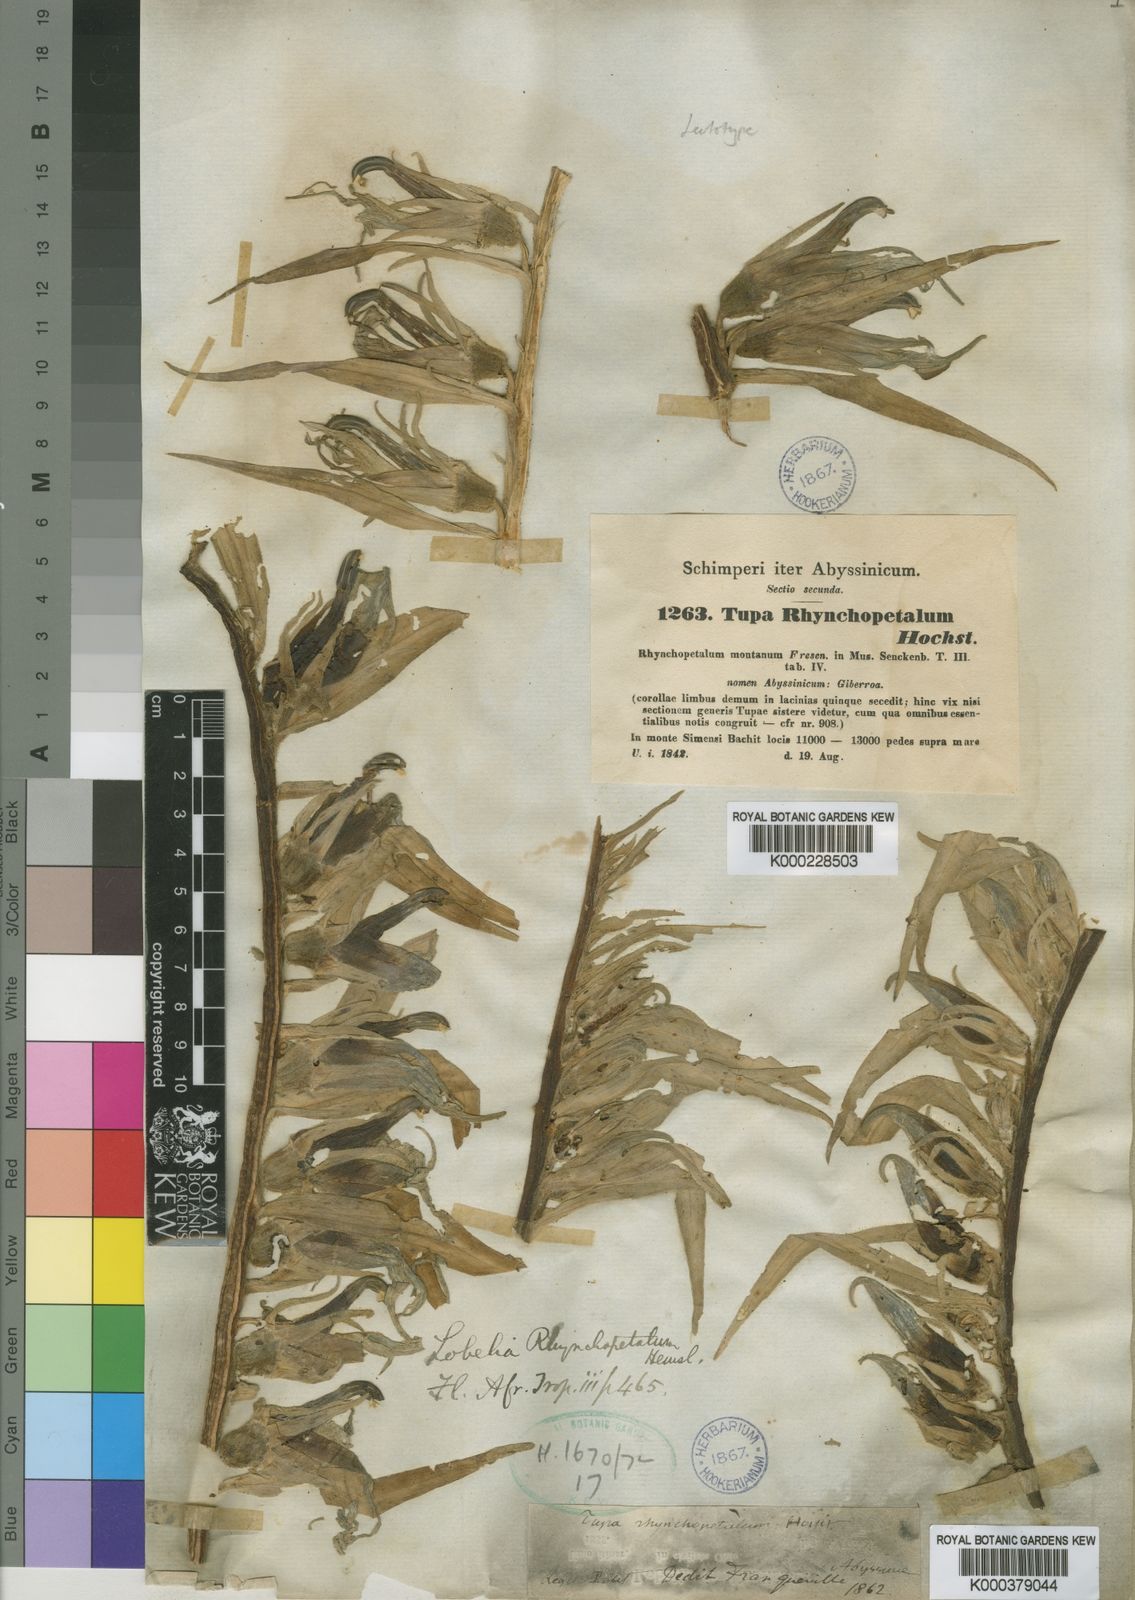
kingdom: Plantae
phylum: Tracheophyta
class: Magnoliopsida
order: Asterales
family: Campanulaceae
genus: Lobelia
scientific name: Lobelia rhynchopetalum
